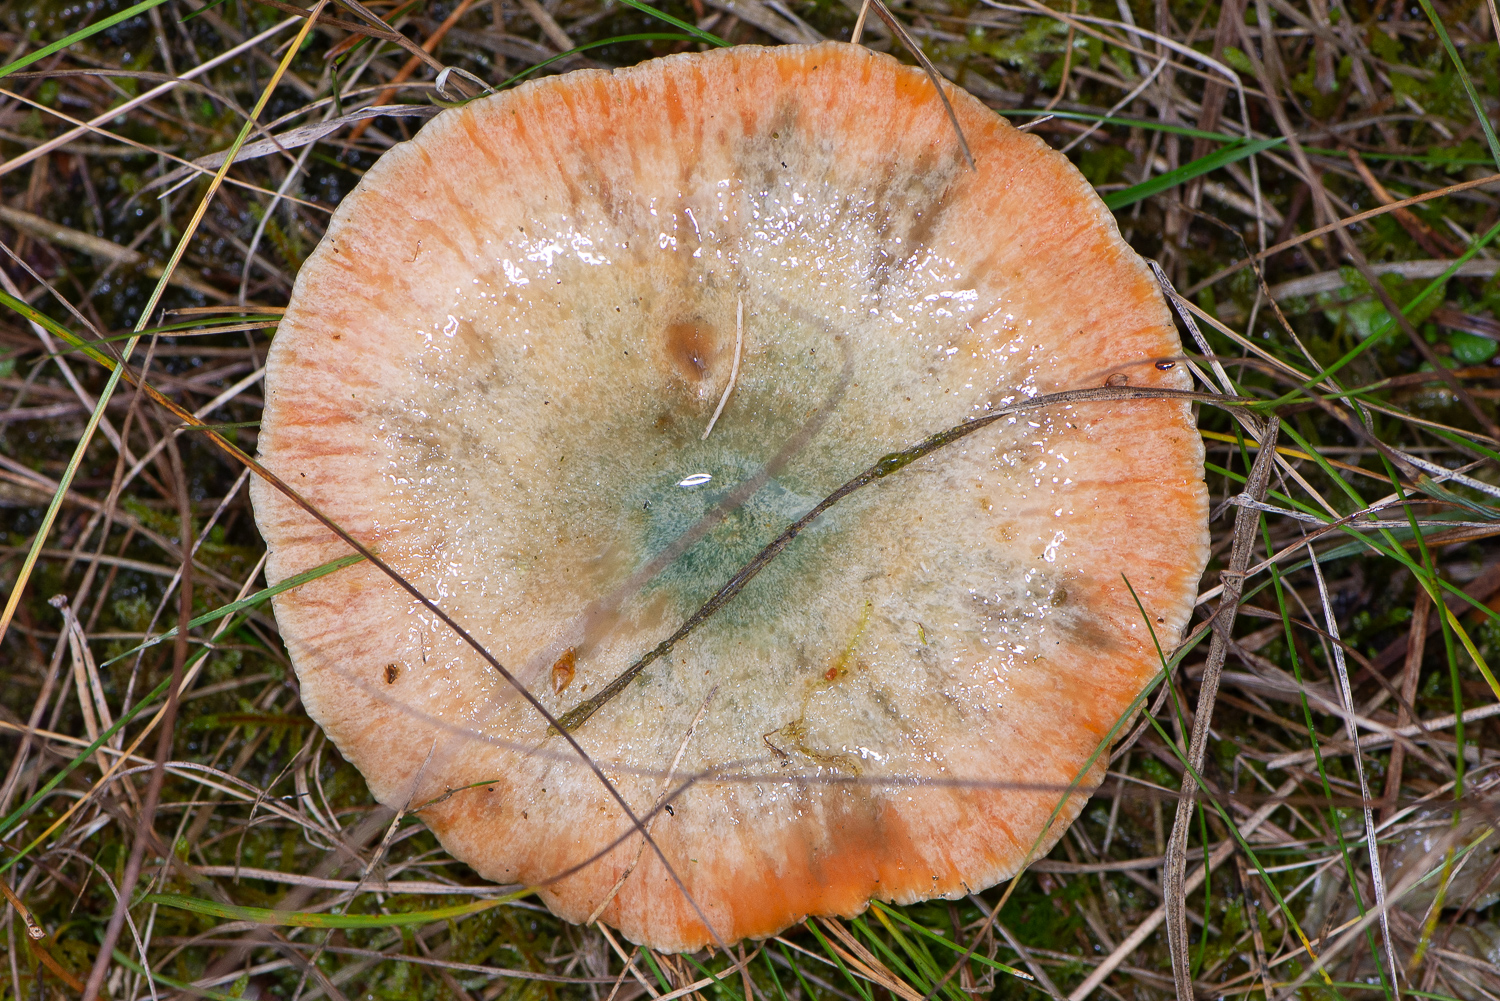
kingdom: Fungi
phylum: Basidiomycota
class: Agaricomycetes
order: Russulales
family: Russulaceae
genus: Lactarius
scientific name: Lactarius deterrimus
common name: gran-mælkehat
